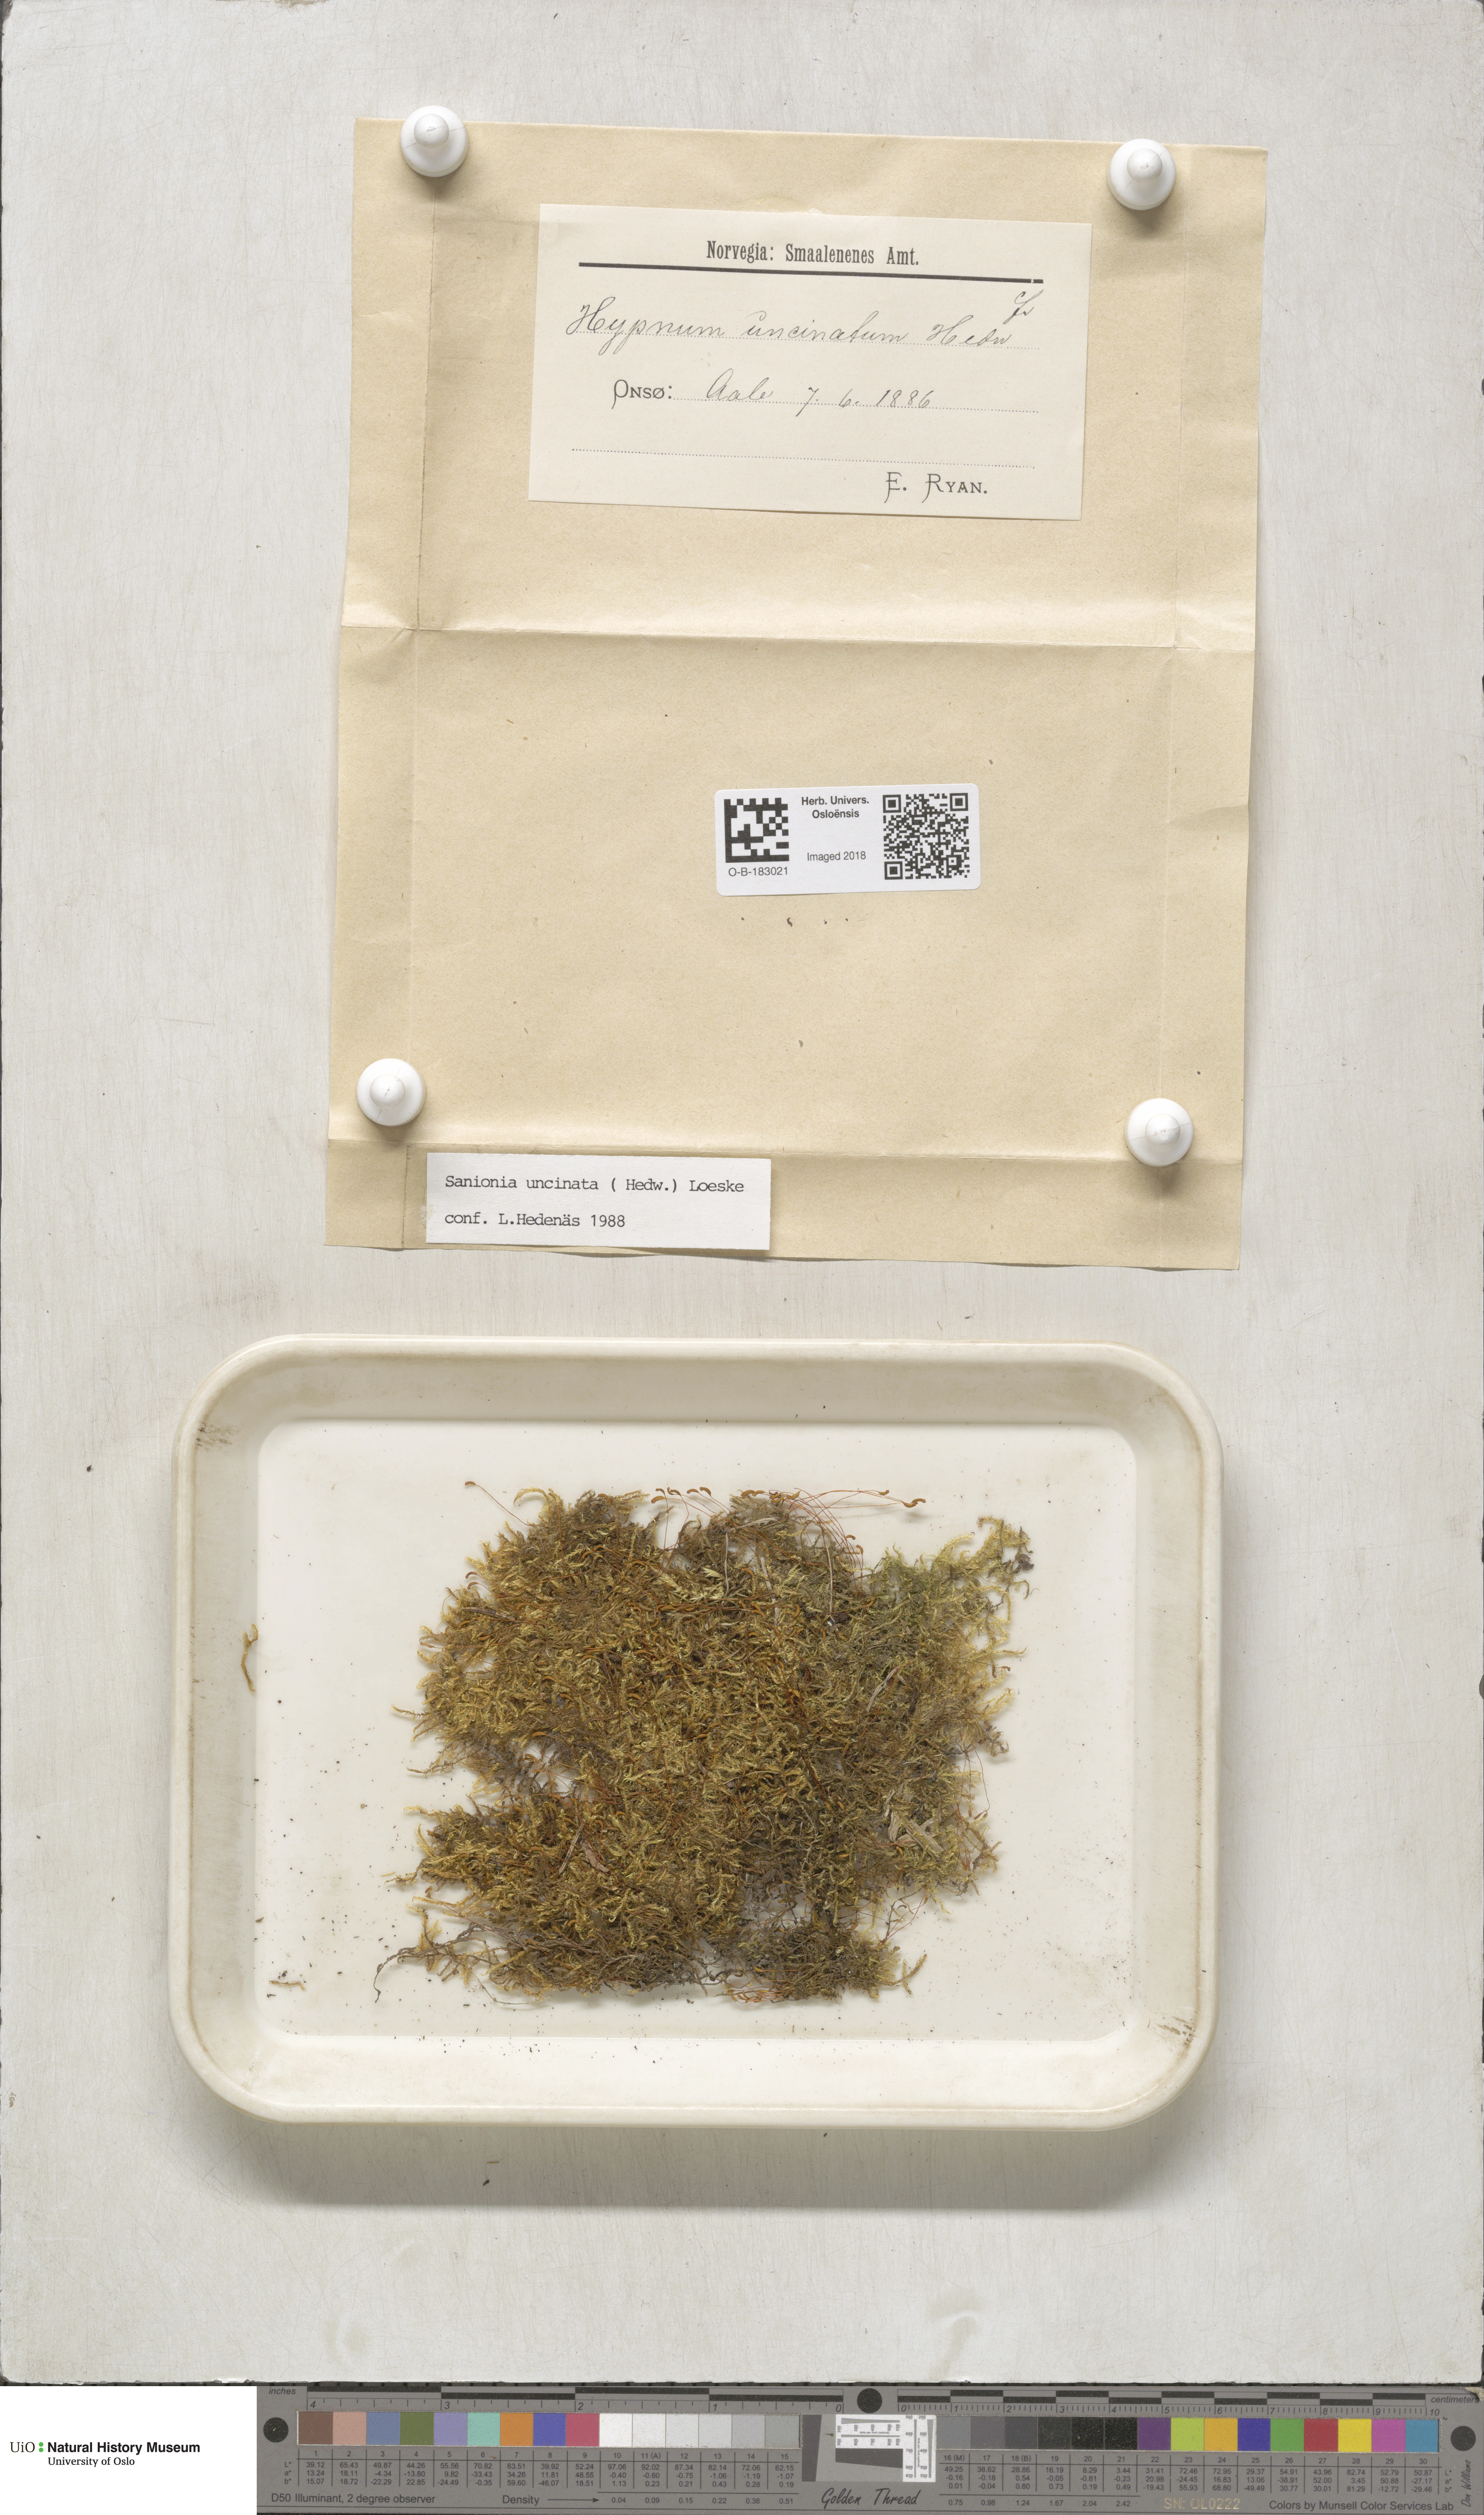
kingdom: Plantae
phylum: Bryophyta
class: Bryopsida
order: Hypnales
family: Scorpidiaceae
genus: Sanionia
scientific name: Sanionia uncinata
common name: Sickle moss
